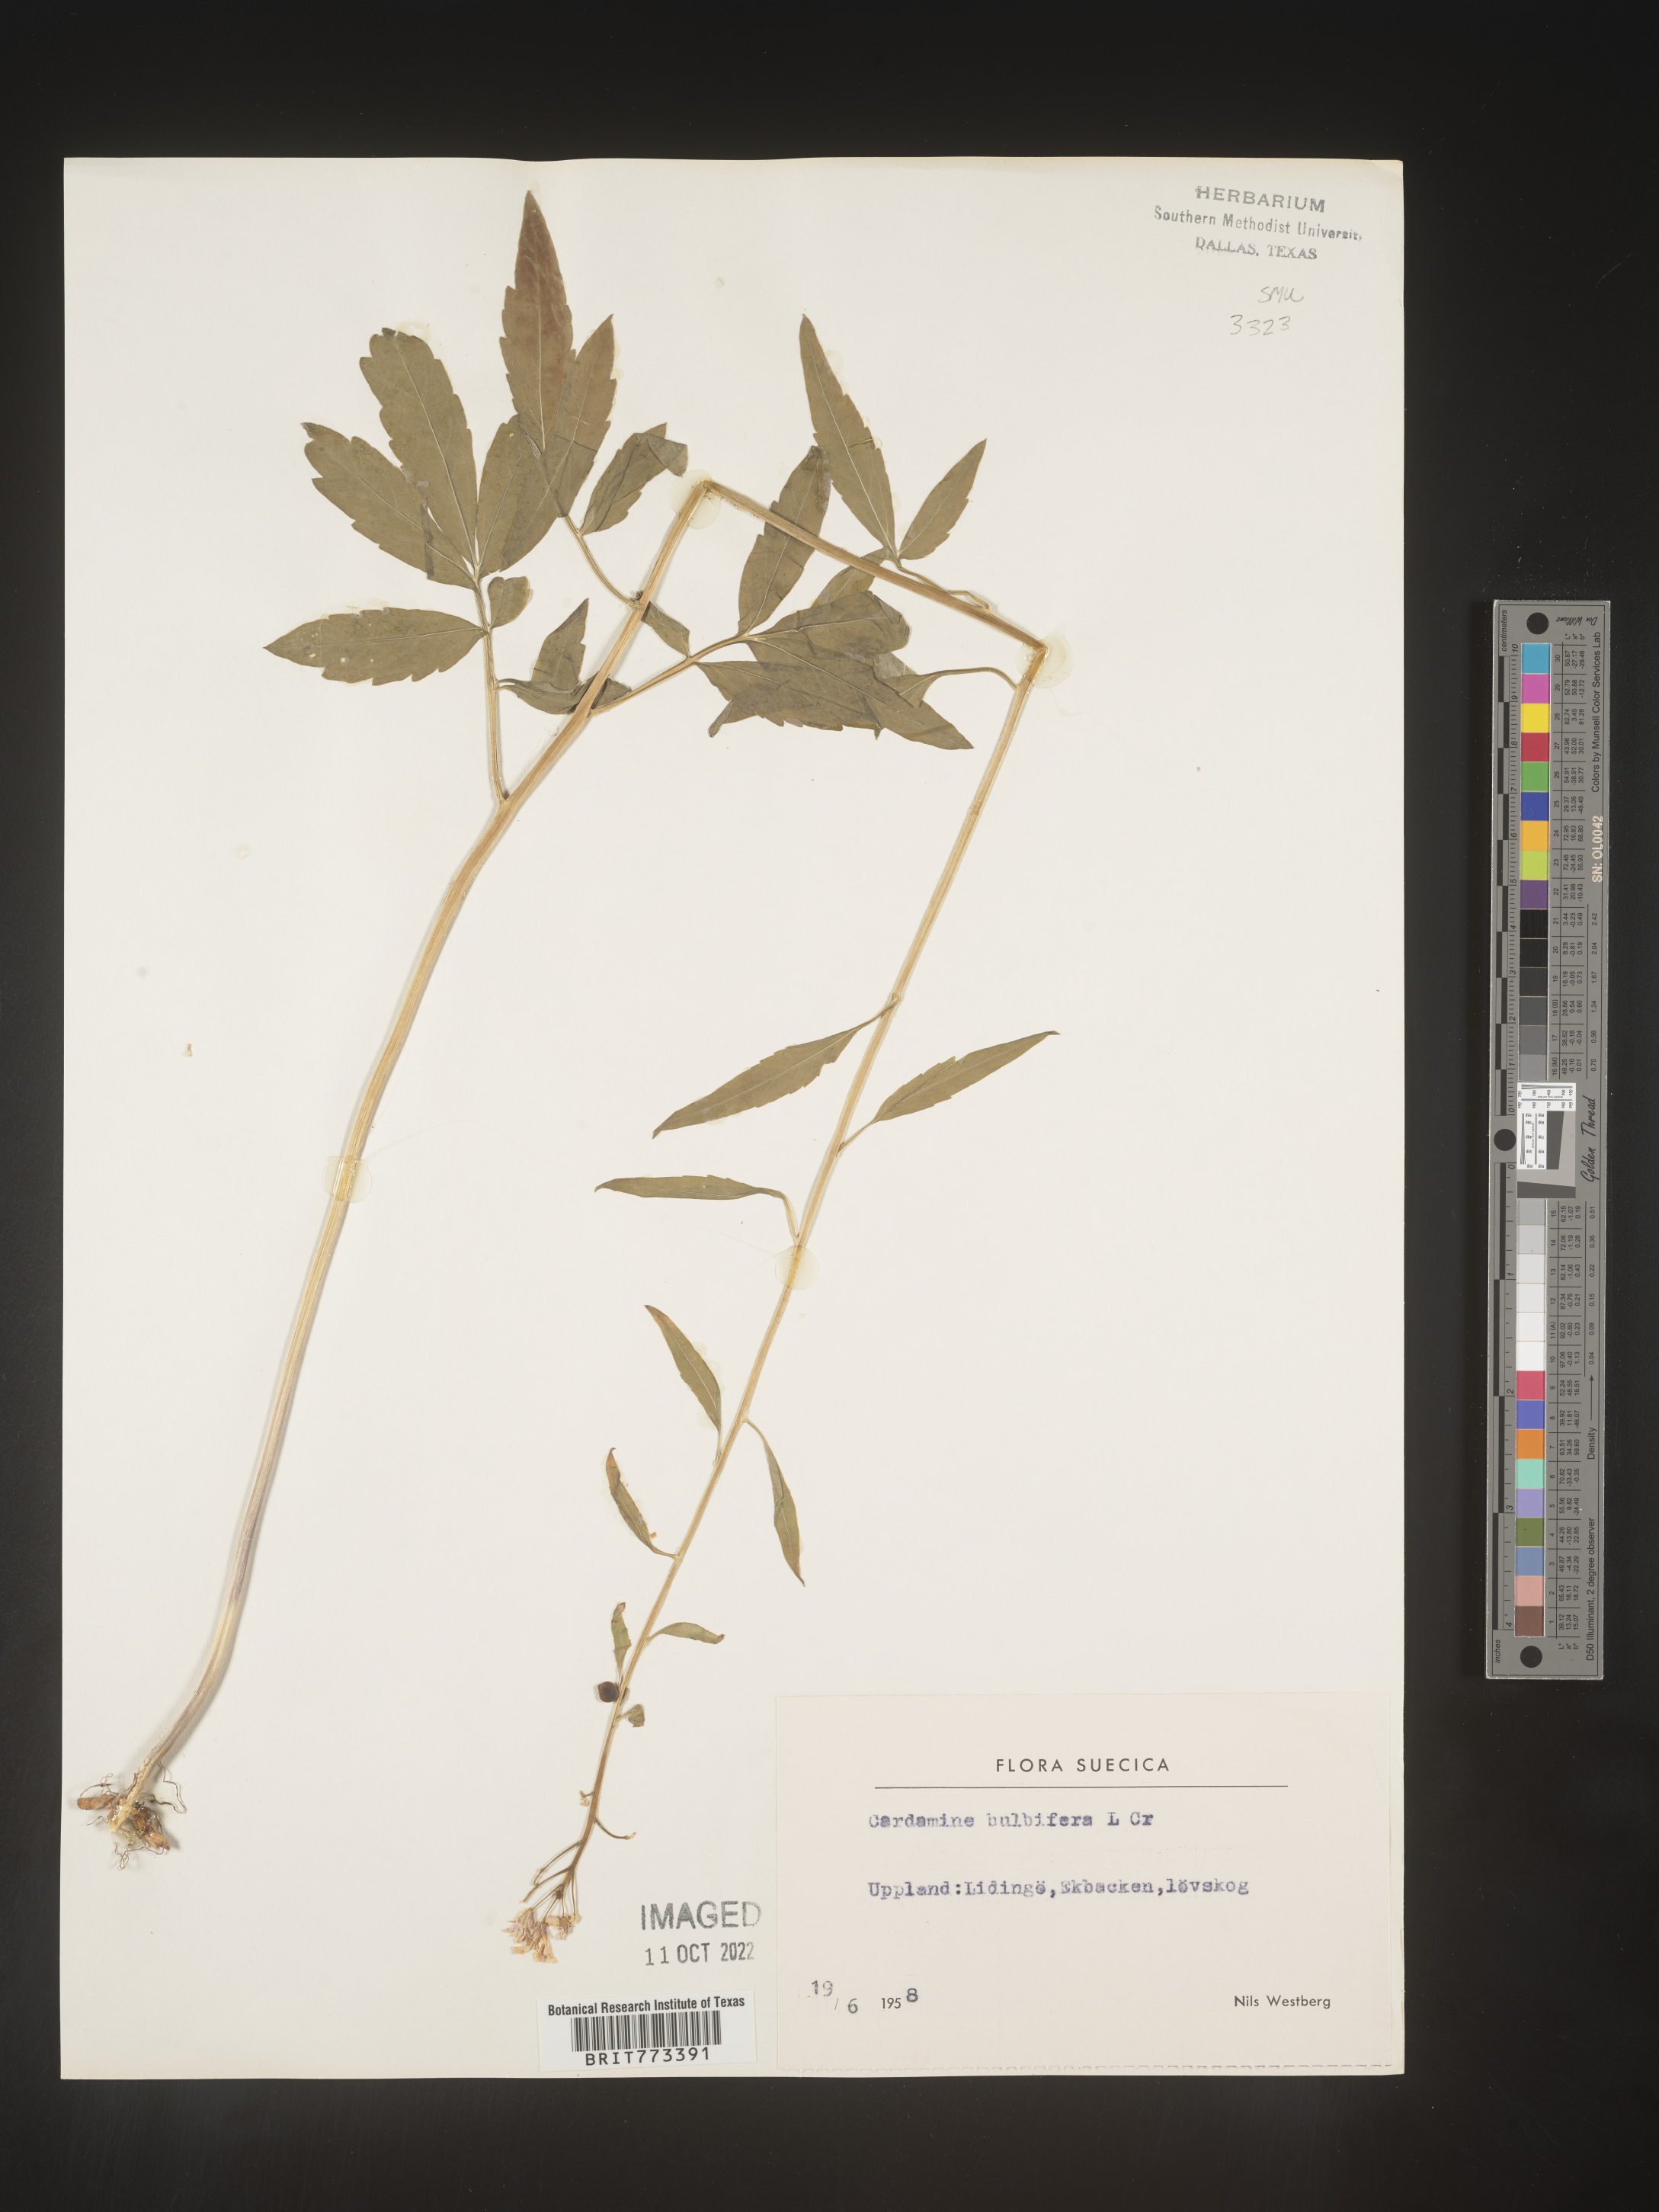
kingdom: Plantae
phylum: Tracheophyta
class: Magnoliopsida
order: Brassicales
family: Brassicaceae
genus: Cardamine
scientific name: Cardamine
